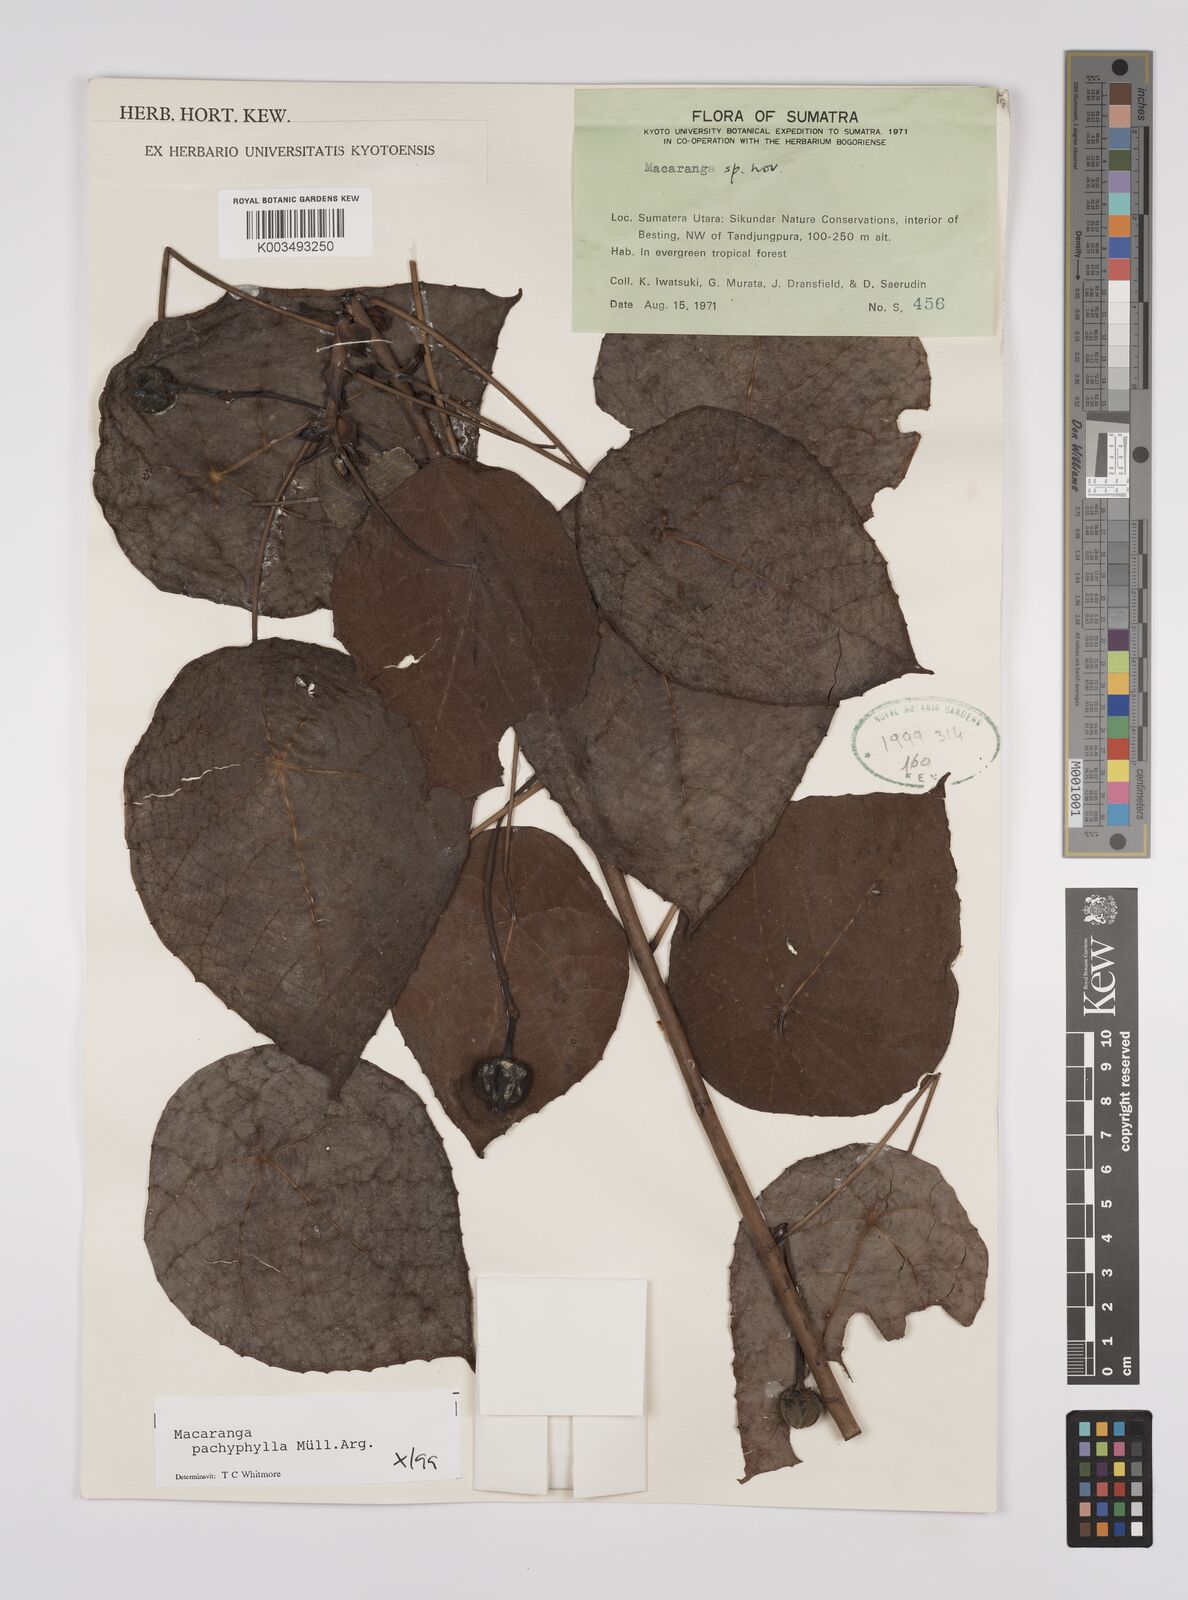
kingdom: Plantae
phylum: Tracheophyta
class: Magnoliopsida
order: Malpighiales
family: Euphorbiaceae
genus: Macaranga
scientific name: Macaranga pachyphylla
